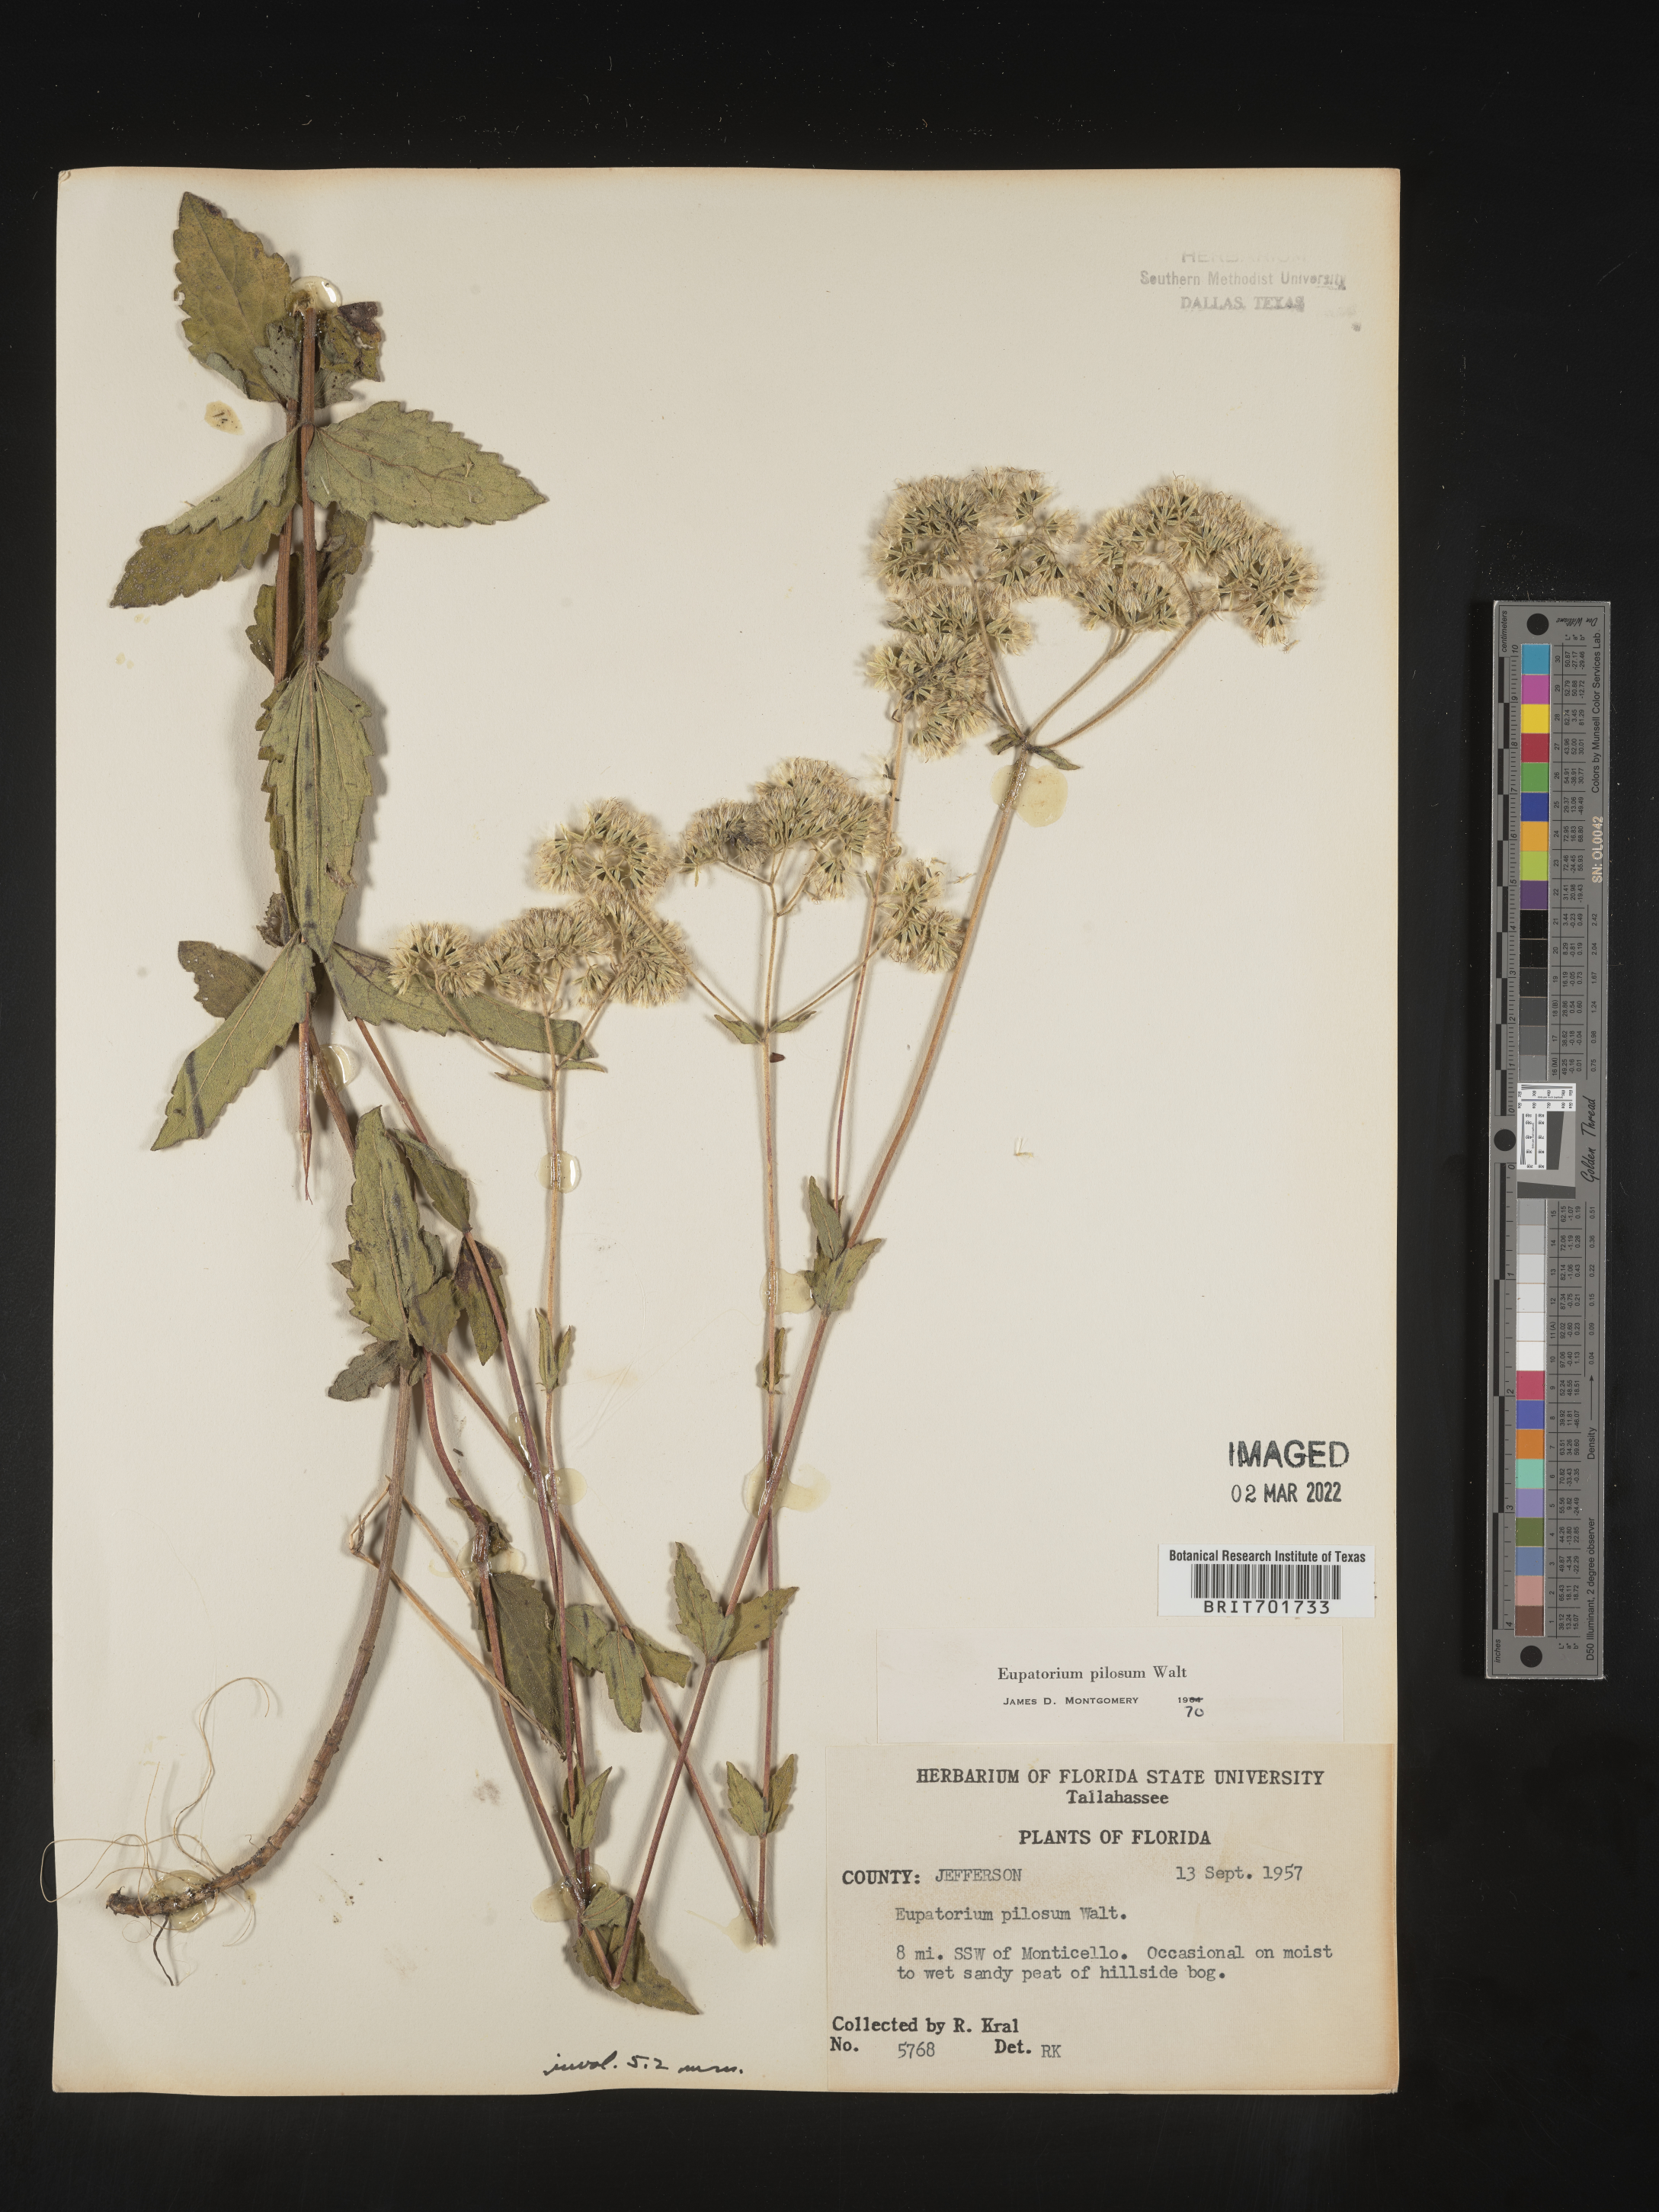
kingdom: Plantae
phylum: Tracheophyta
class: Magnoliopsida
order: Asterales
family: Asteraceae
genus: Eupatorium
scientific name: Eupatorium pilosum
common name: Rough boneset
